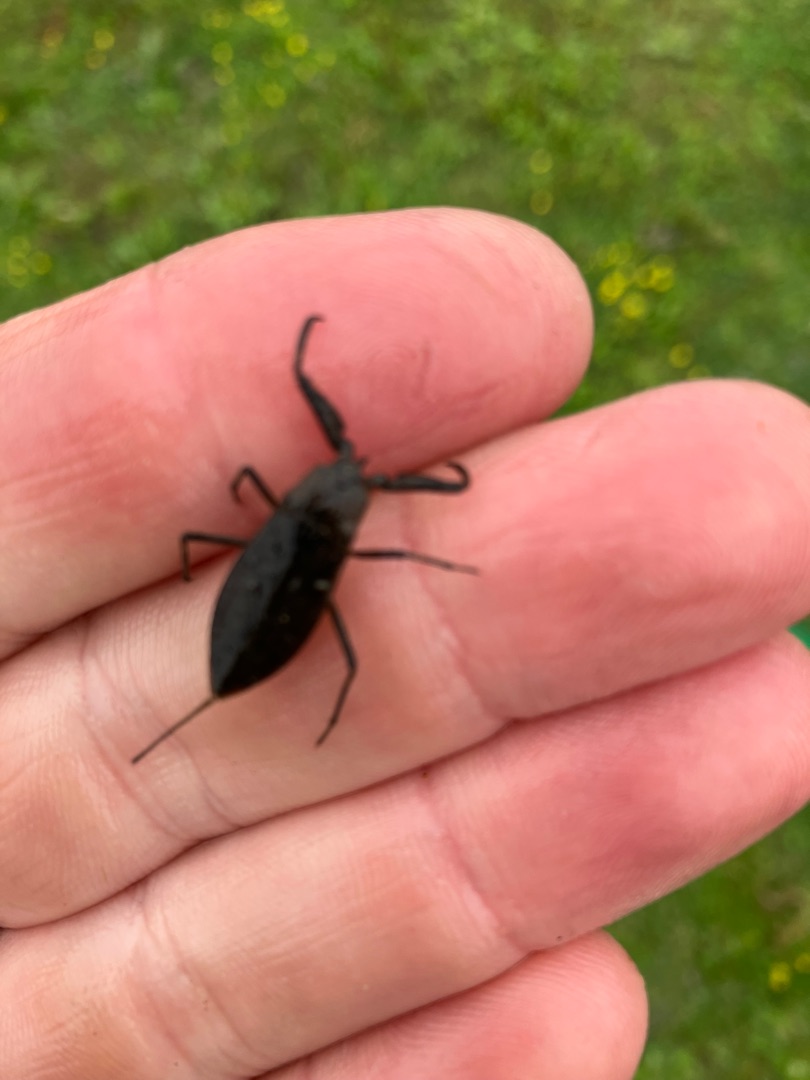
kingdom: Animalia
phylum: Arthropoda
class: Insecta
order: Hemiptera
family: Nepidae
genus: Nepa
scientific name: Nepa cinerea
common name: Skorpiontæge
